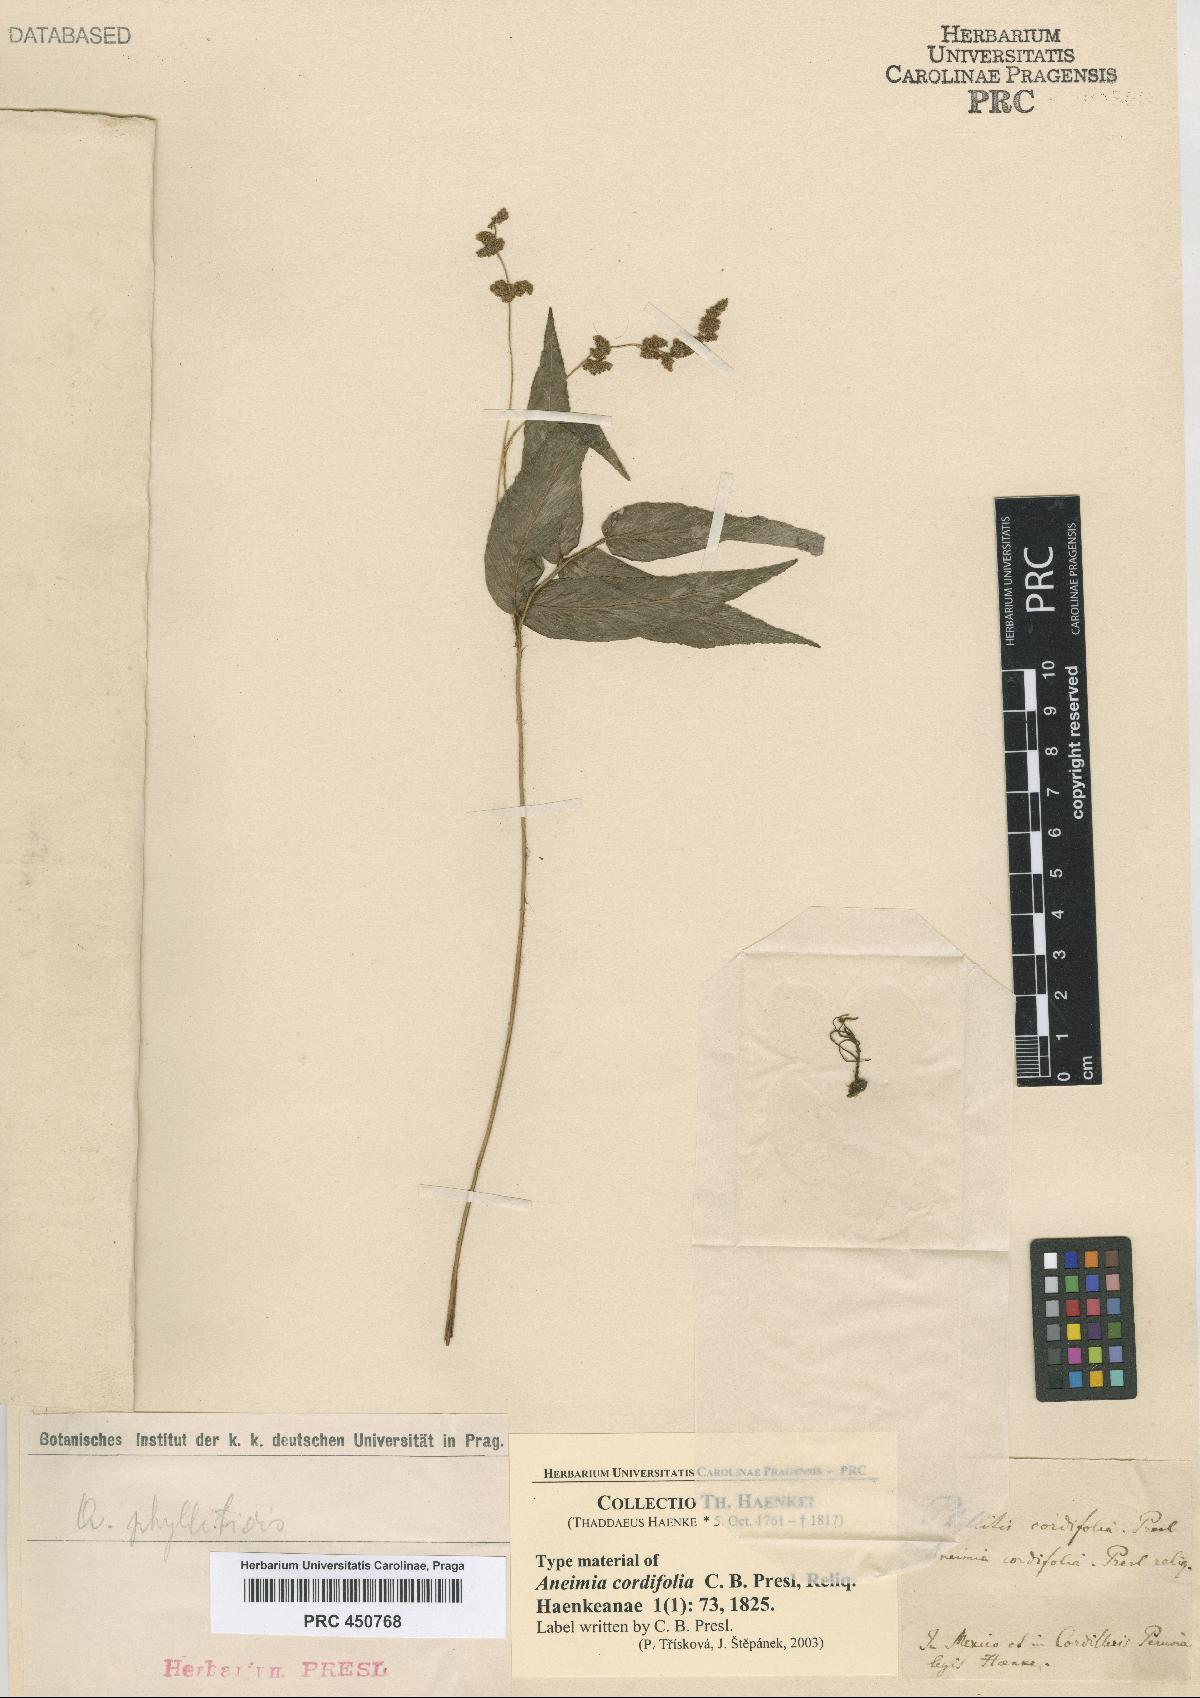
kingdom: Plantae
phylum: Tracheophyta
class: Polypodiopsida
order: Schizaeales
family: Anemiaceae
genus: Anemia
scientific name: Anemia
